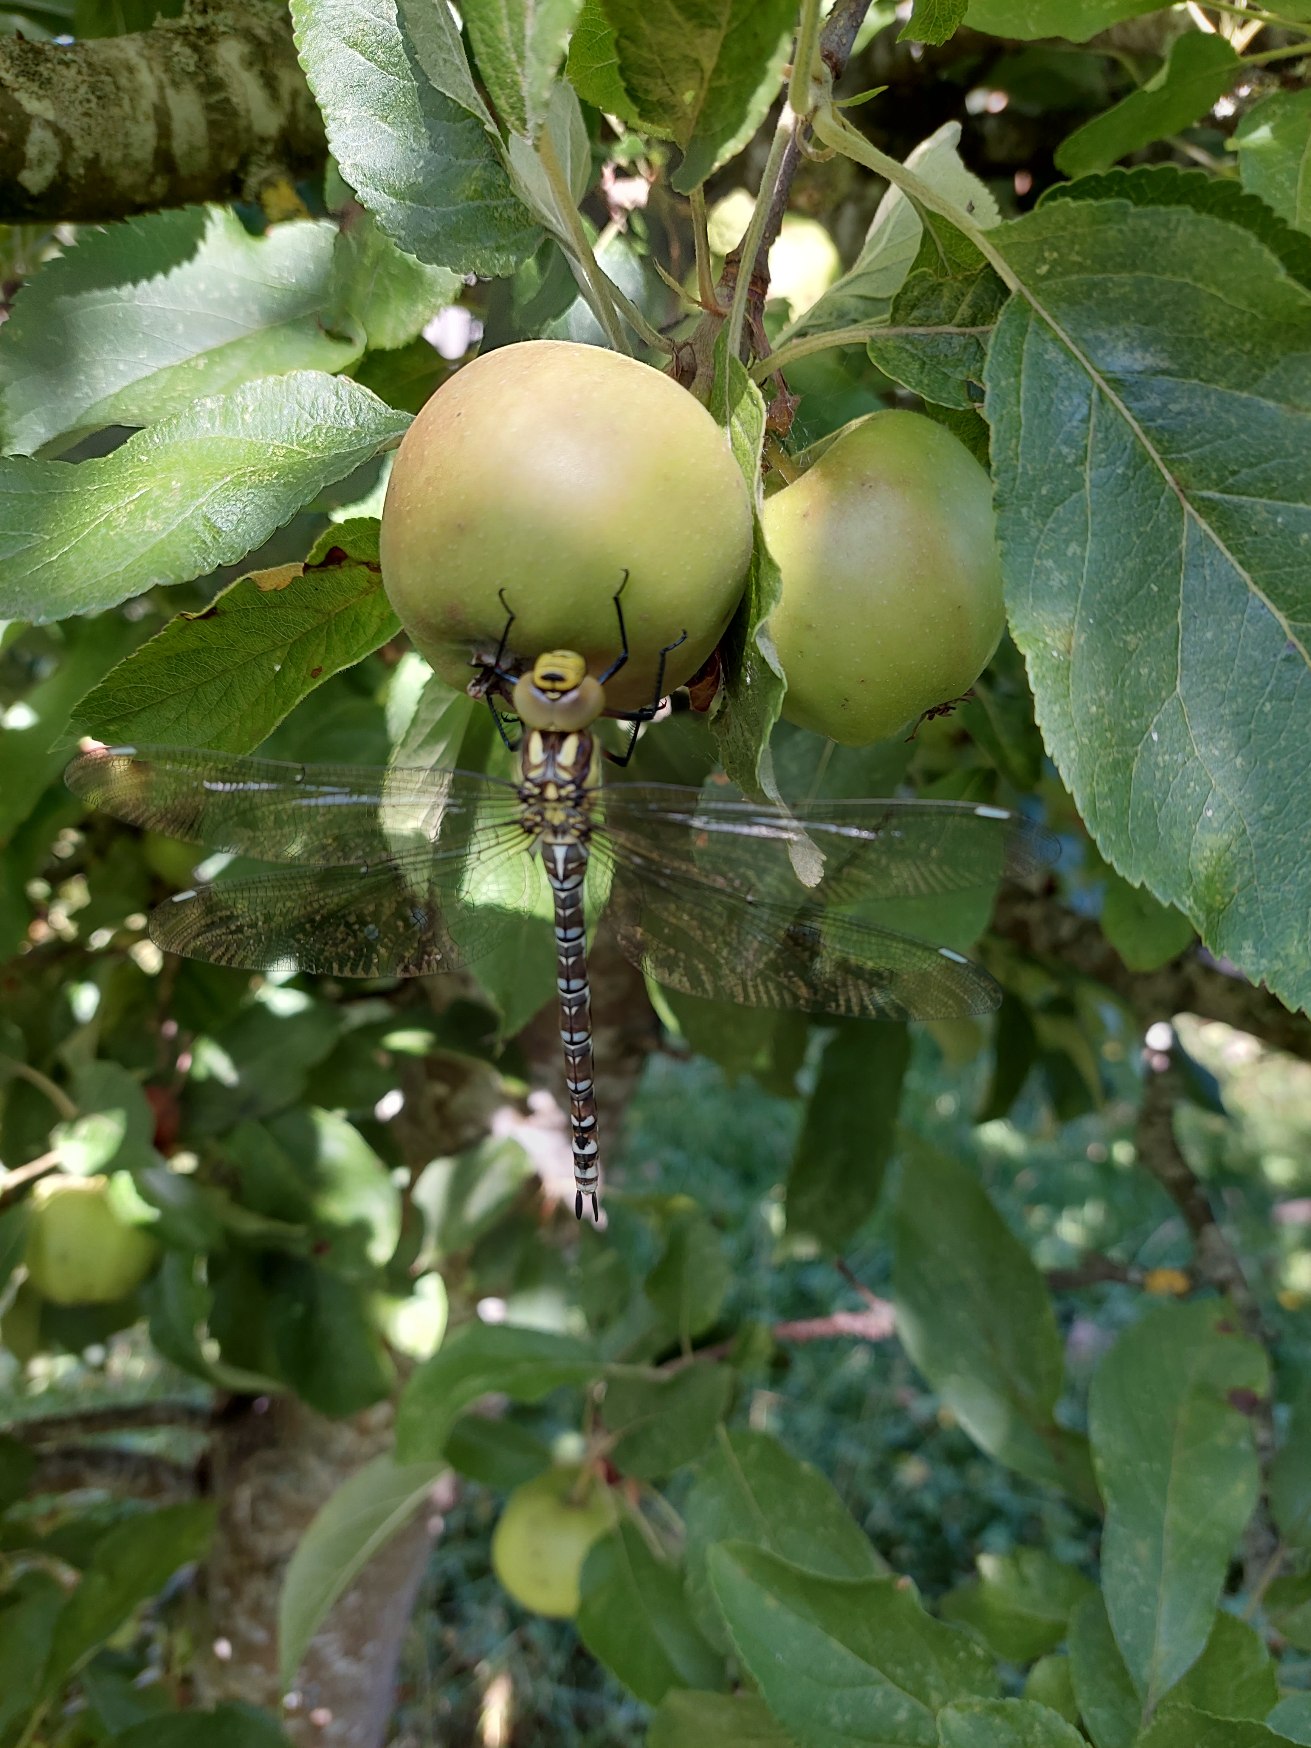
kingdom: Animalia
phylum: Arthropoda
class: Insecta
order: Odonata
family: Aeshnidae
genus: Aeshna
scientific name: Aeshna cyanea
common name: Blå mosaikguldsmed
